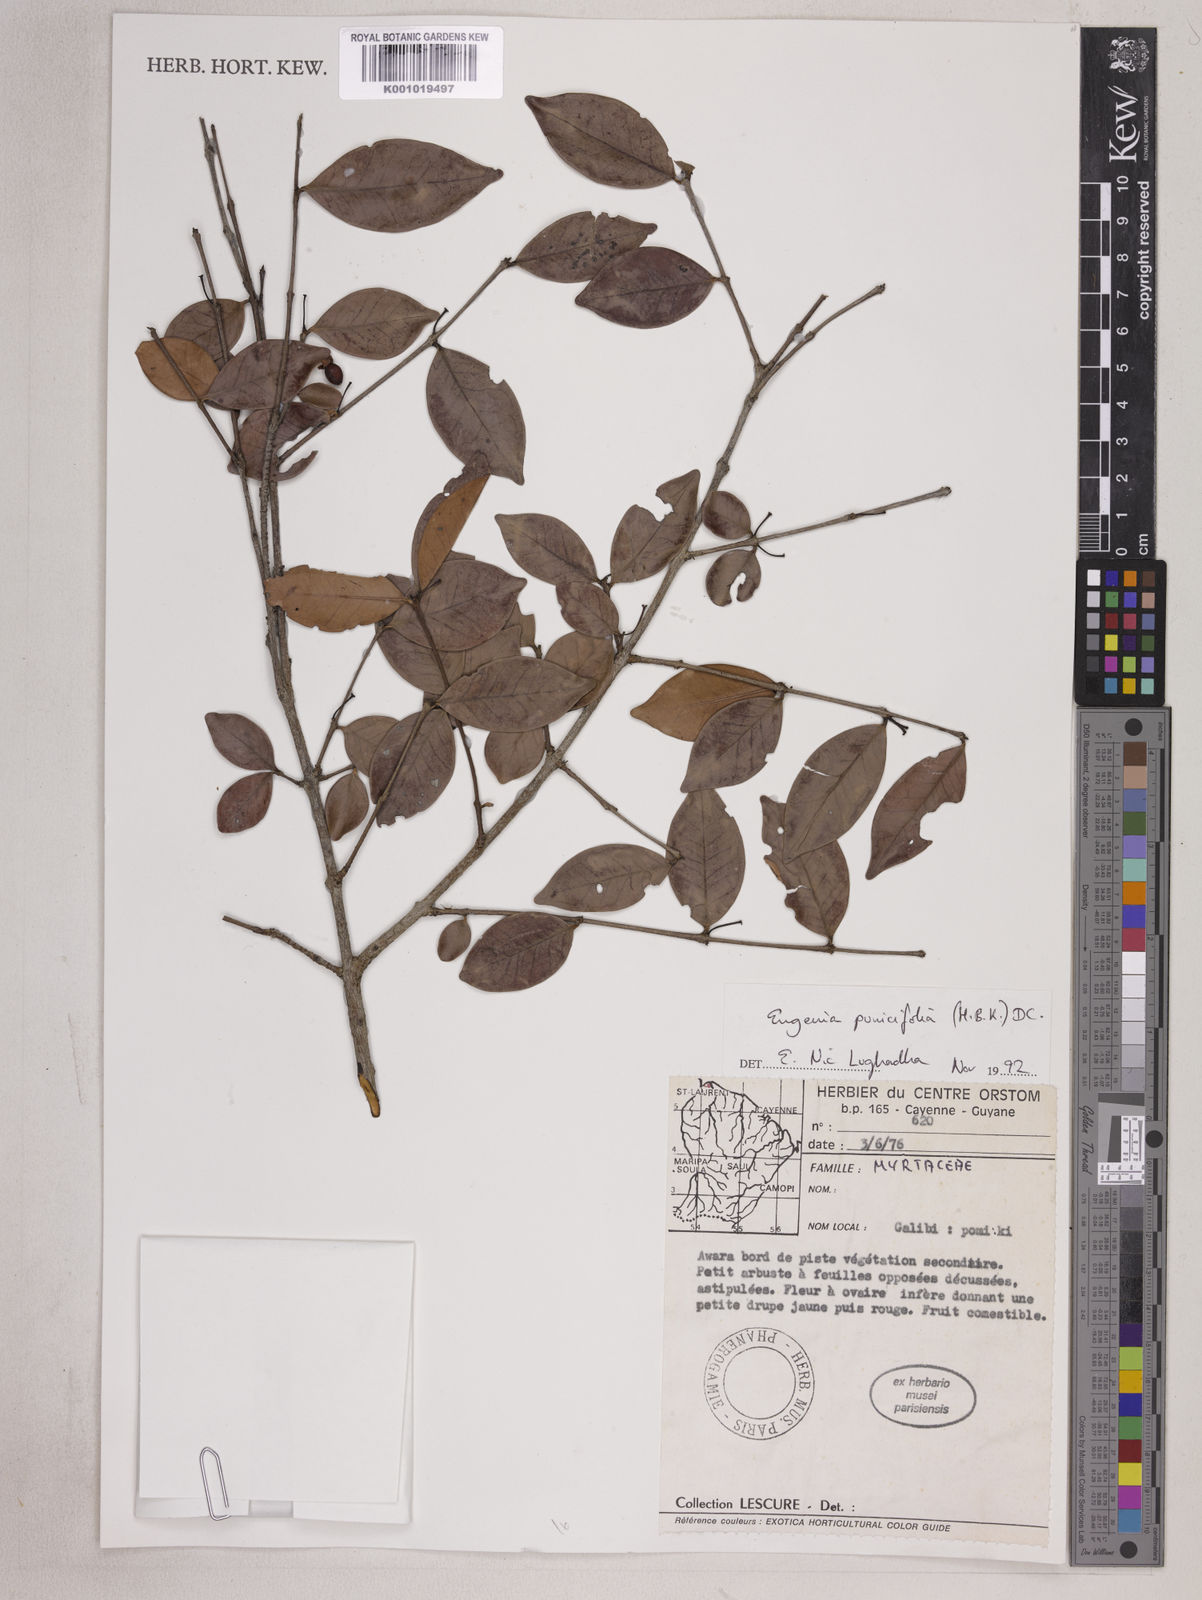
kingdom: Plantae
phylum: Tracheophyta
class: Magnoliopsida
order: Myrtales
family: Myrtaceae
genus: Eugenia
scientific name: Eugenia punicifolia
